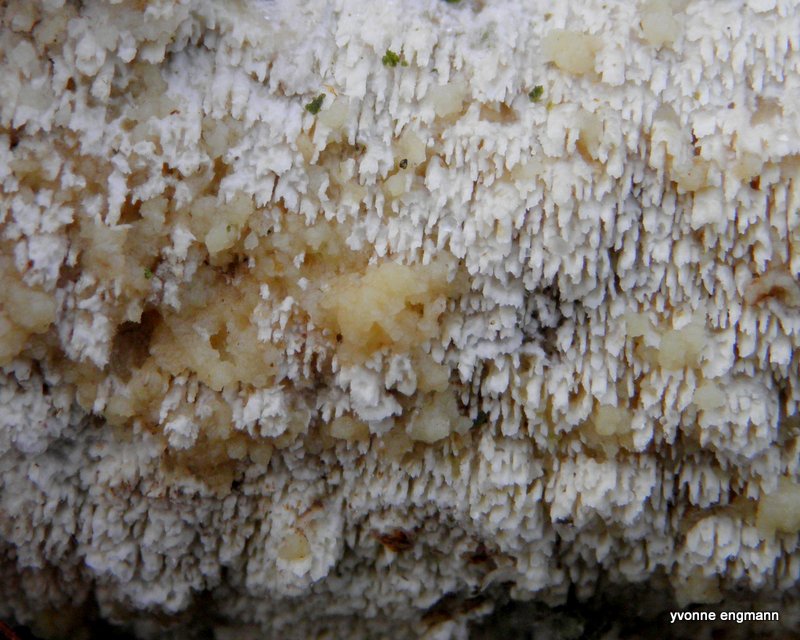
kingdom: Fungi
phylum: Basidiomycota
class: Agaricomycetes
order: Hymenochaetales
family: Schizoporaceae
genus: Schizopora
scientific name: Schizopora paradoxa
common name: hvid tandsvamp
